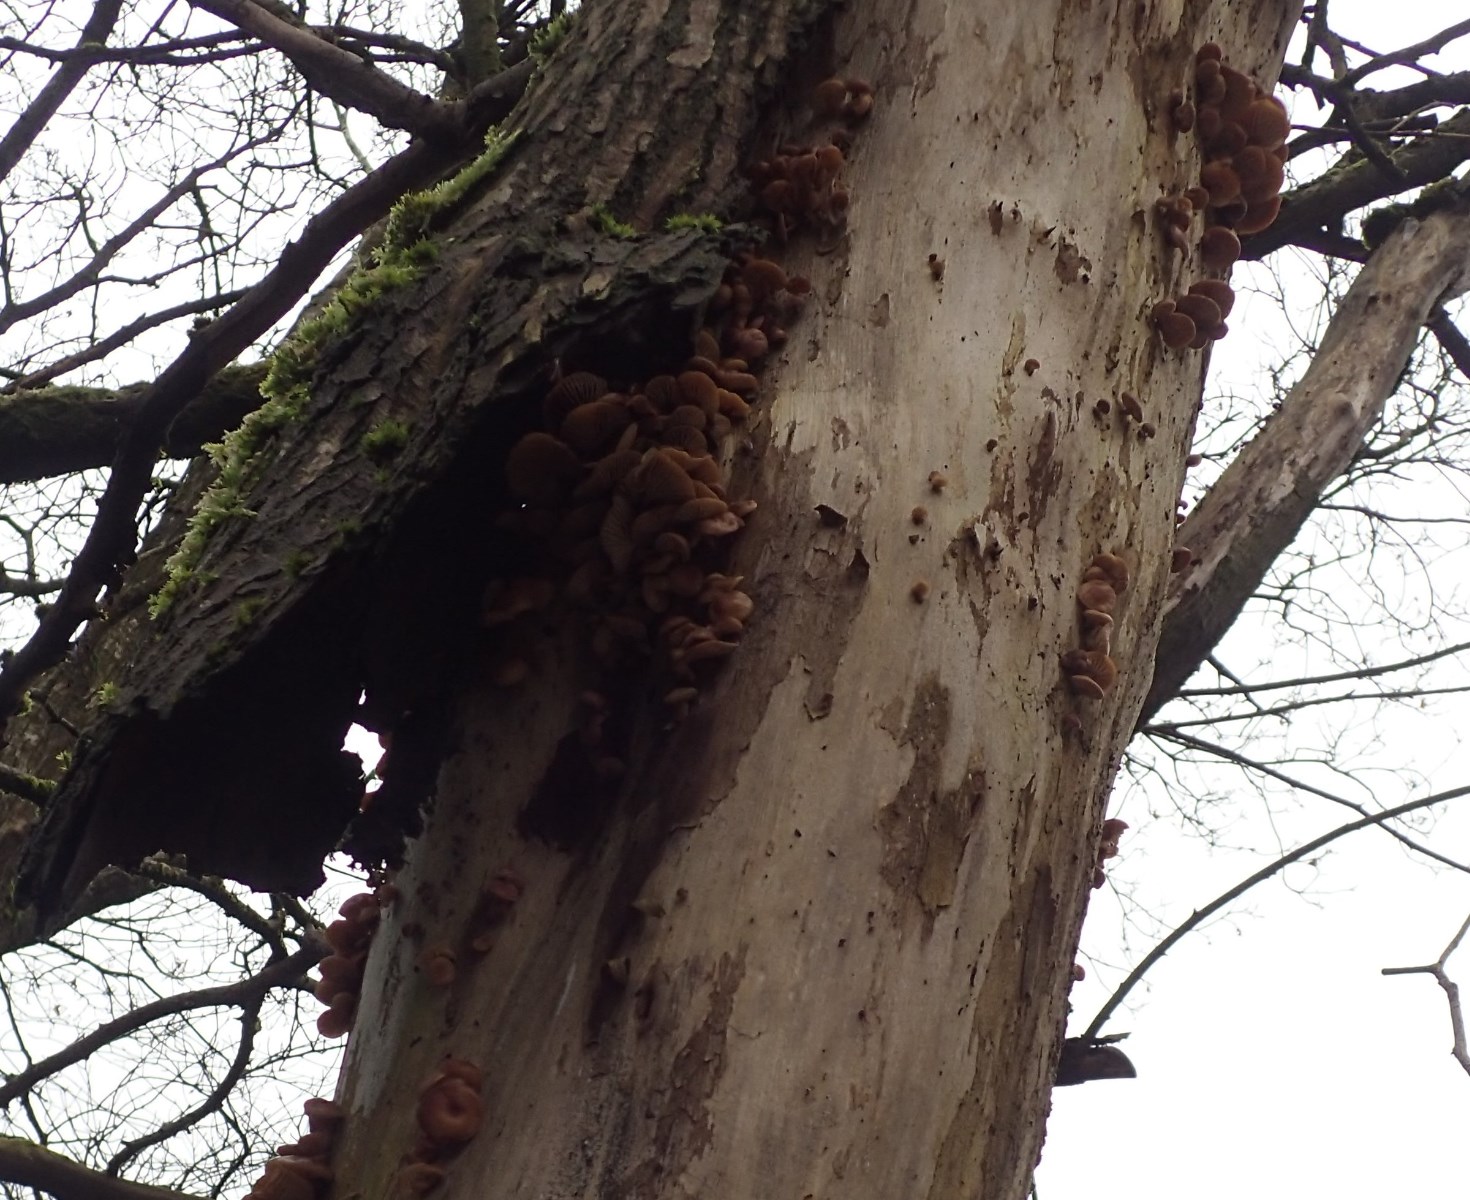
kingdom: Fungi
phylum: Basidiomycota
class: Agaricomycetes
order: Agaricales
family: Physalacriaceae
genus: Flammulina
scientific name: Flammulina velutipes
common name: gul fløjlsfod
